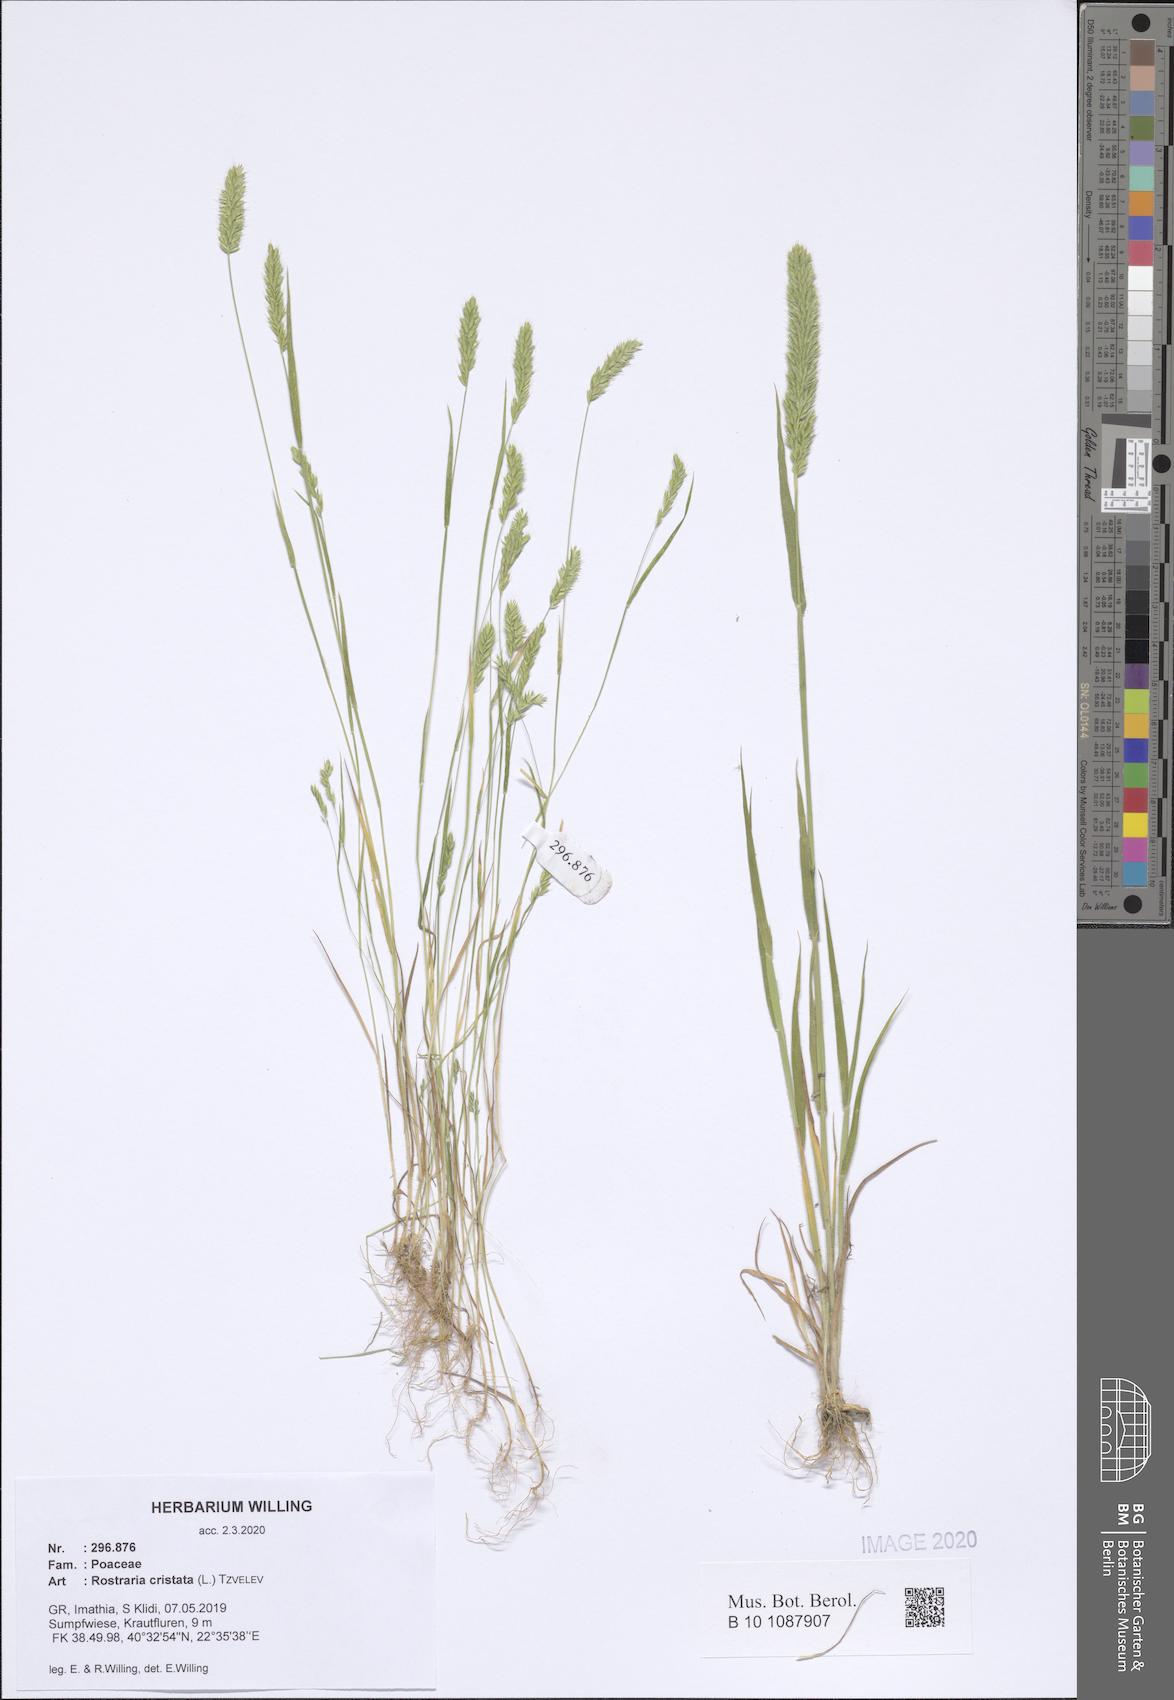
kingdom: Plantae
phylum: Tracheophyta
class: Liliopsida
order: Poales
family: Poaceae
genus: Rostraria
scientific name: Rostraria cristata
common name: Mediterranean hair-grass
